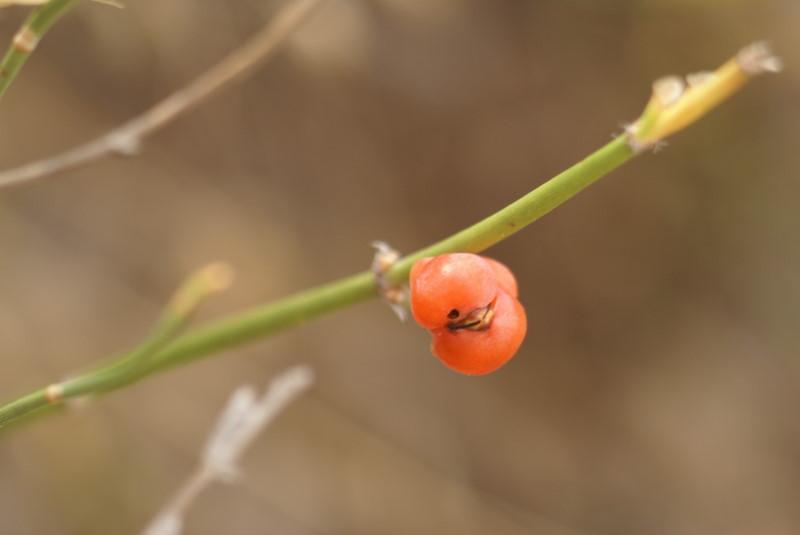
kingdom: Plantae
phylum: Tracheophyta
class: Gnetopsida
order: Ephedrales
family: Ephedraceae
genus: Ephedra
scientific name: Ephedra distachya
